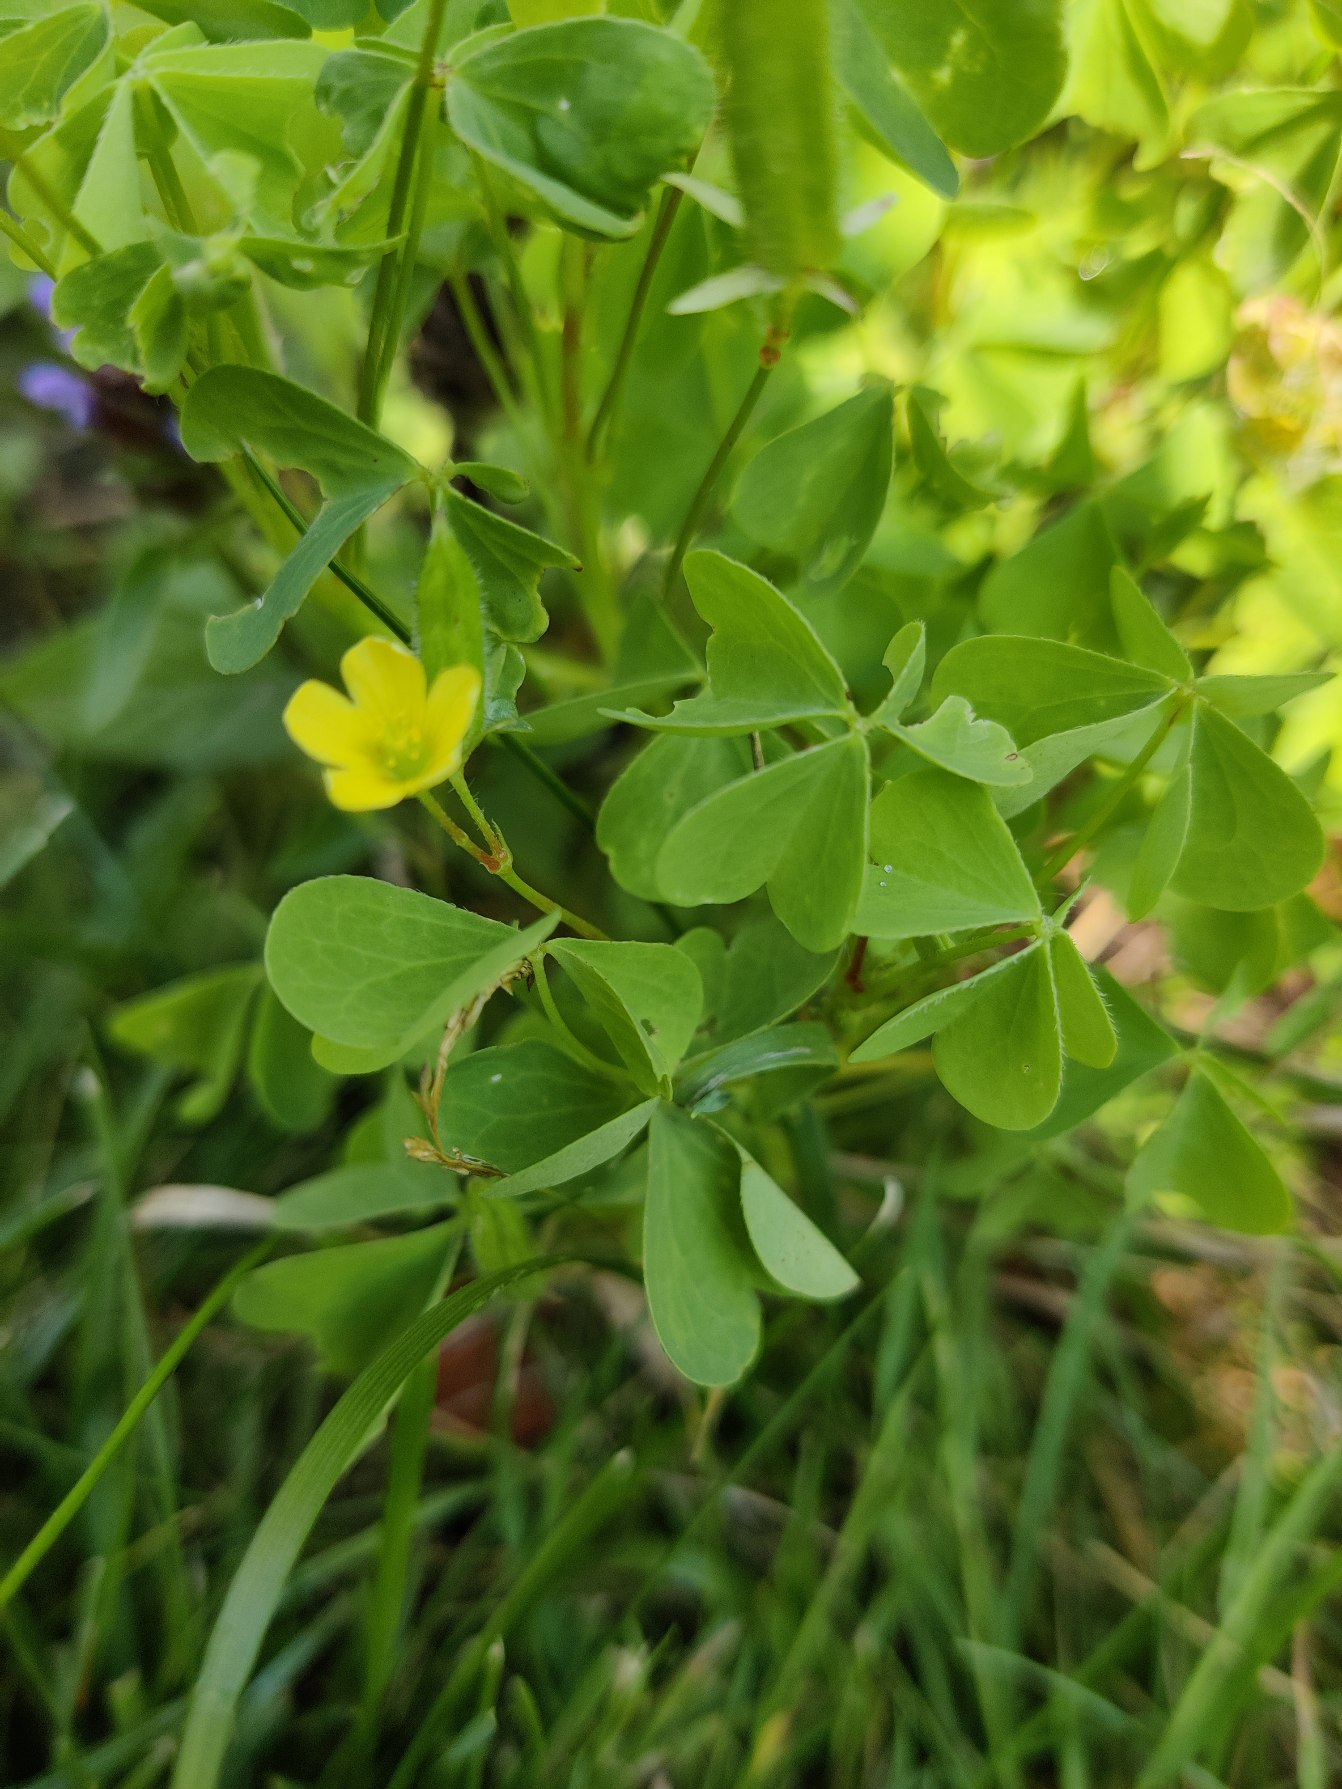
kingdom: Plantae
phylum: Tracheophyta
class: Magnoliopsida
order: Oxalidales
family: Oxalidaceae
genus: Oxalis
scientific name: Oxalis stricta
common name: Rank surkløver
